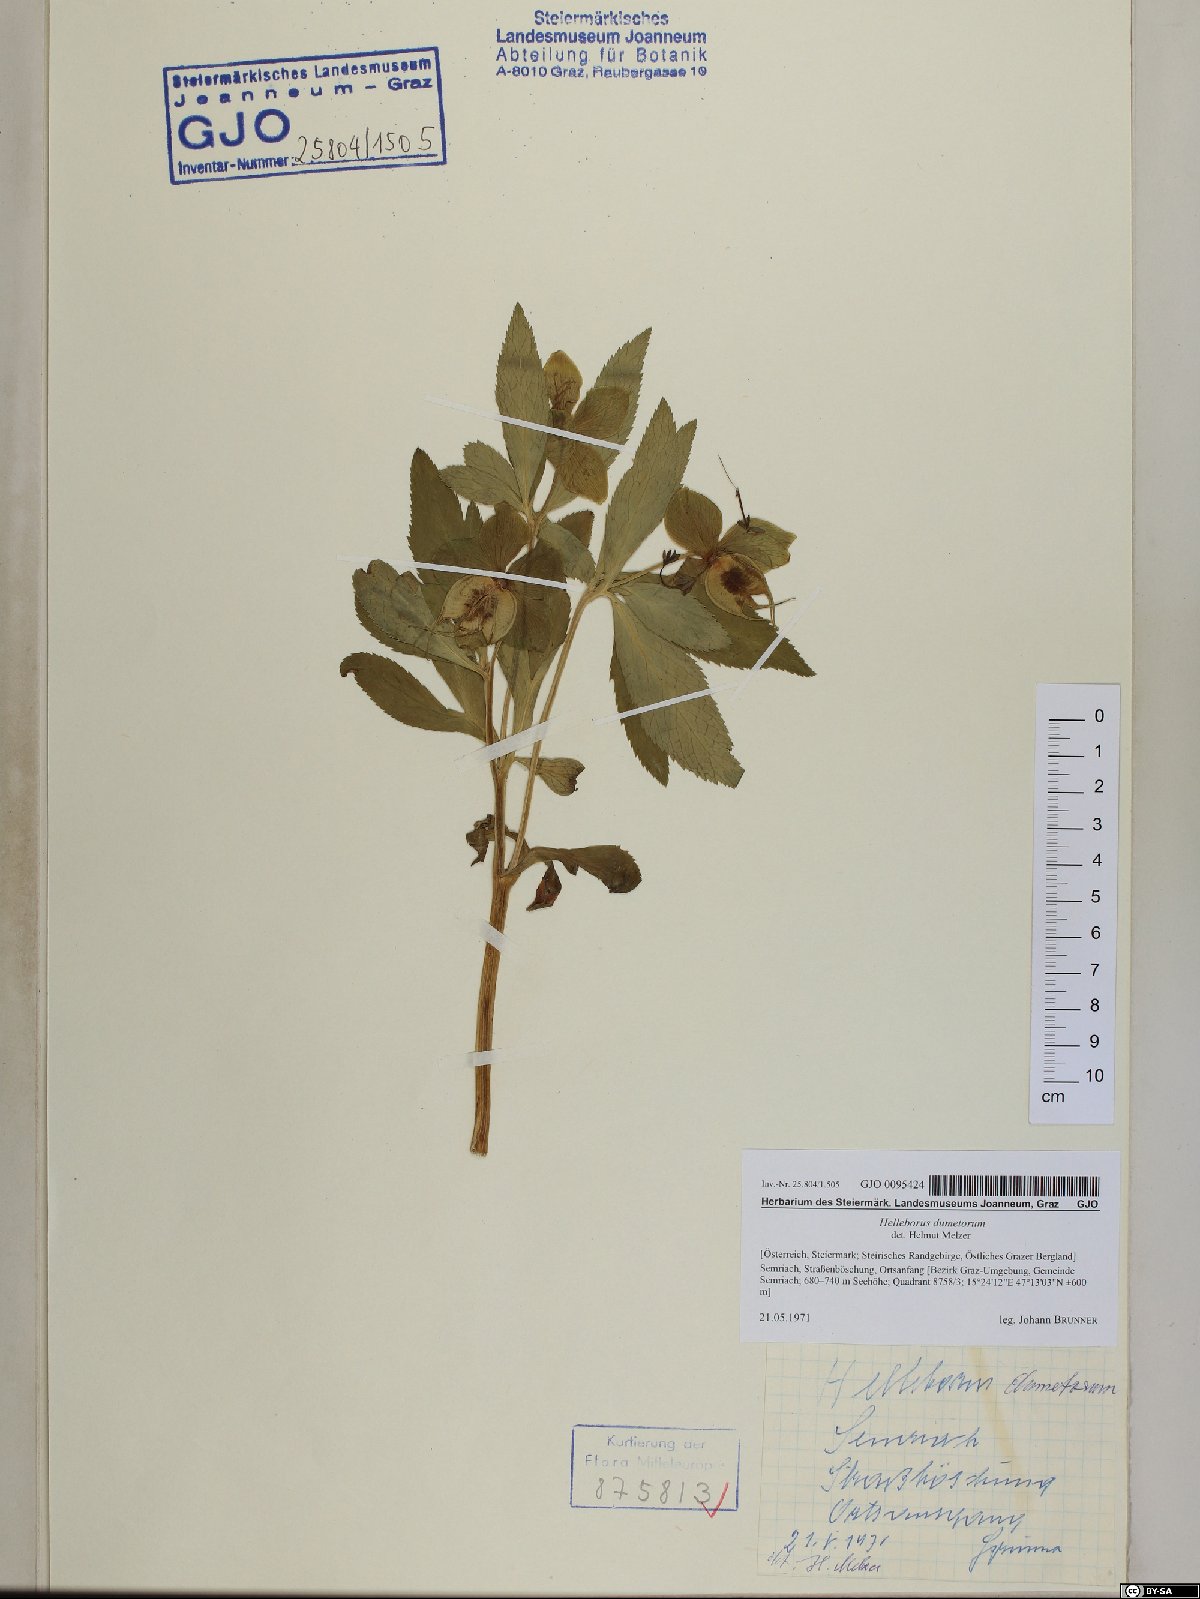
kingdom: Plantae
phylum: Tracheophyta
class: Magnoliopsida
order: Ranunculales
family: Ranunculaceae
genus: Helleborus
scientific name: Helleborus dumetorum
